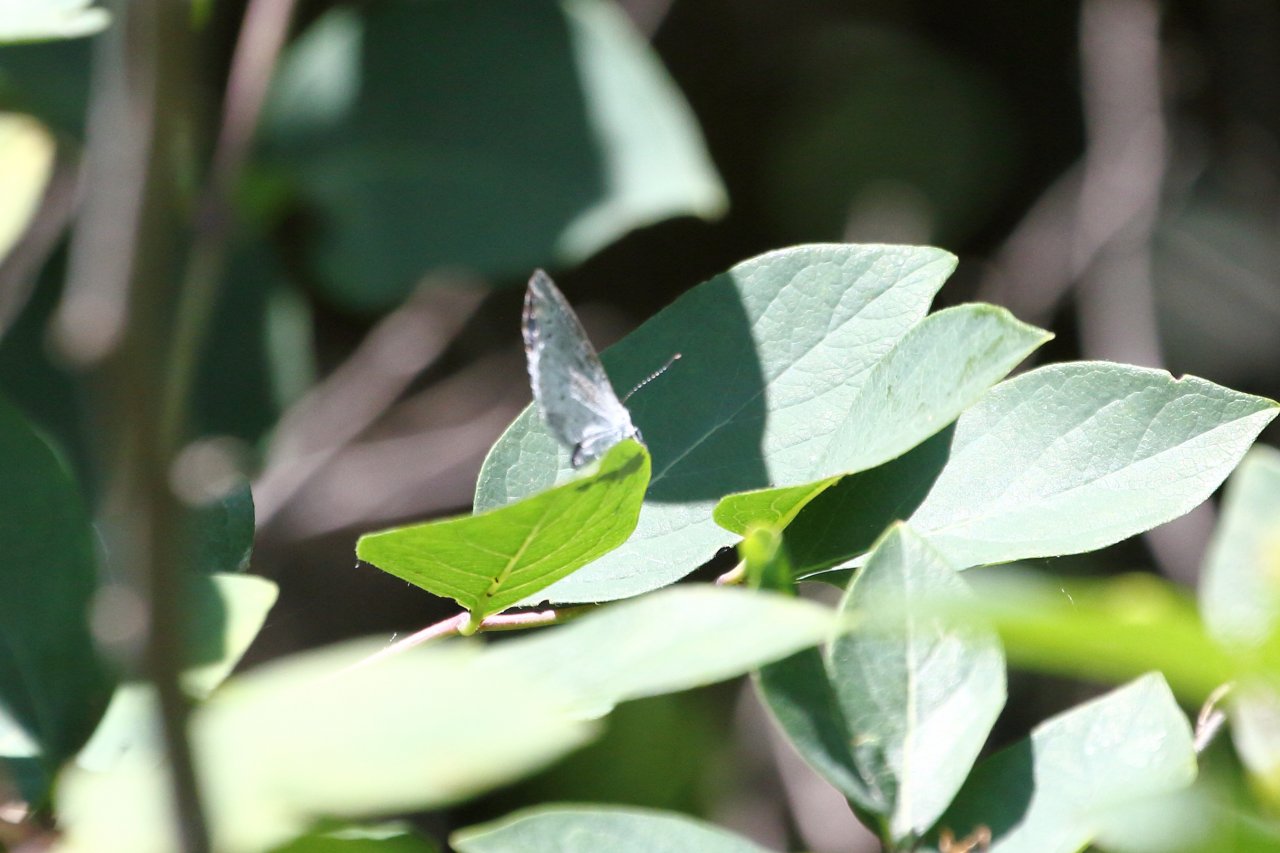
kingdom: Animalia
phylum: Arthropoda
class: Insecta
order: Lepidoptera
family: Lycaenidae
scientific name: Lycaenidae
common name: Blues
